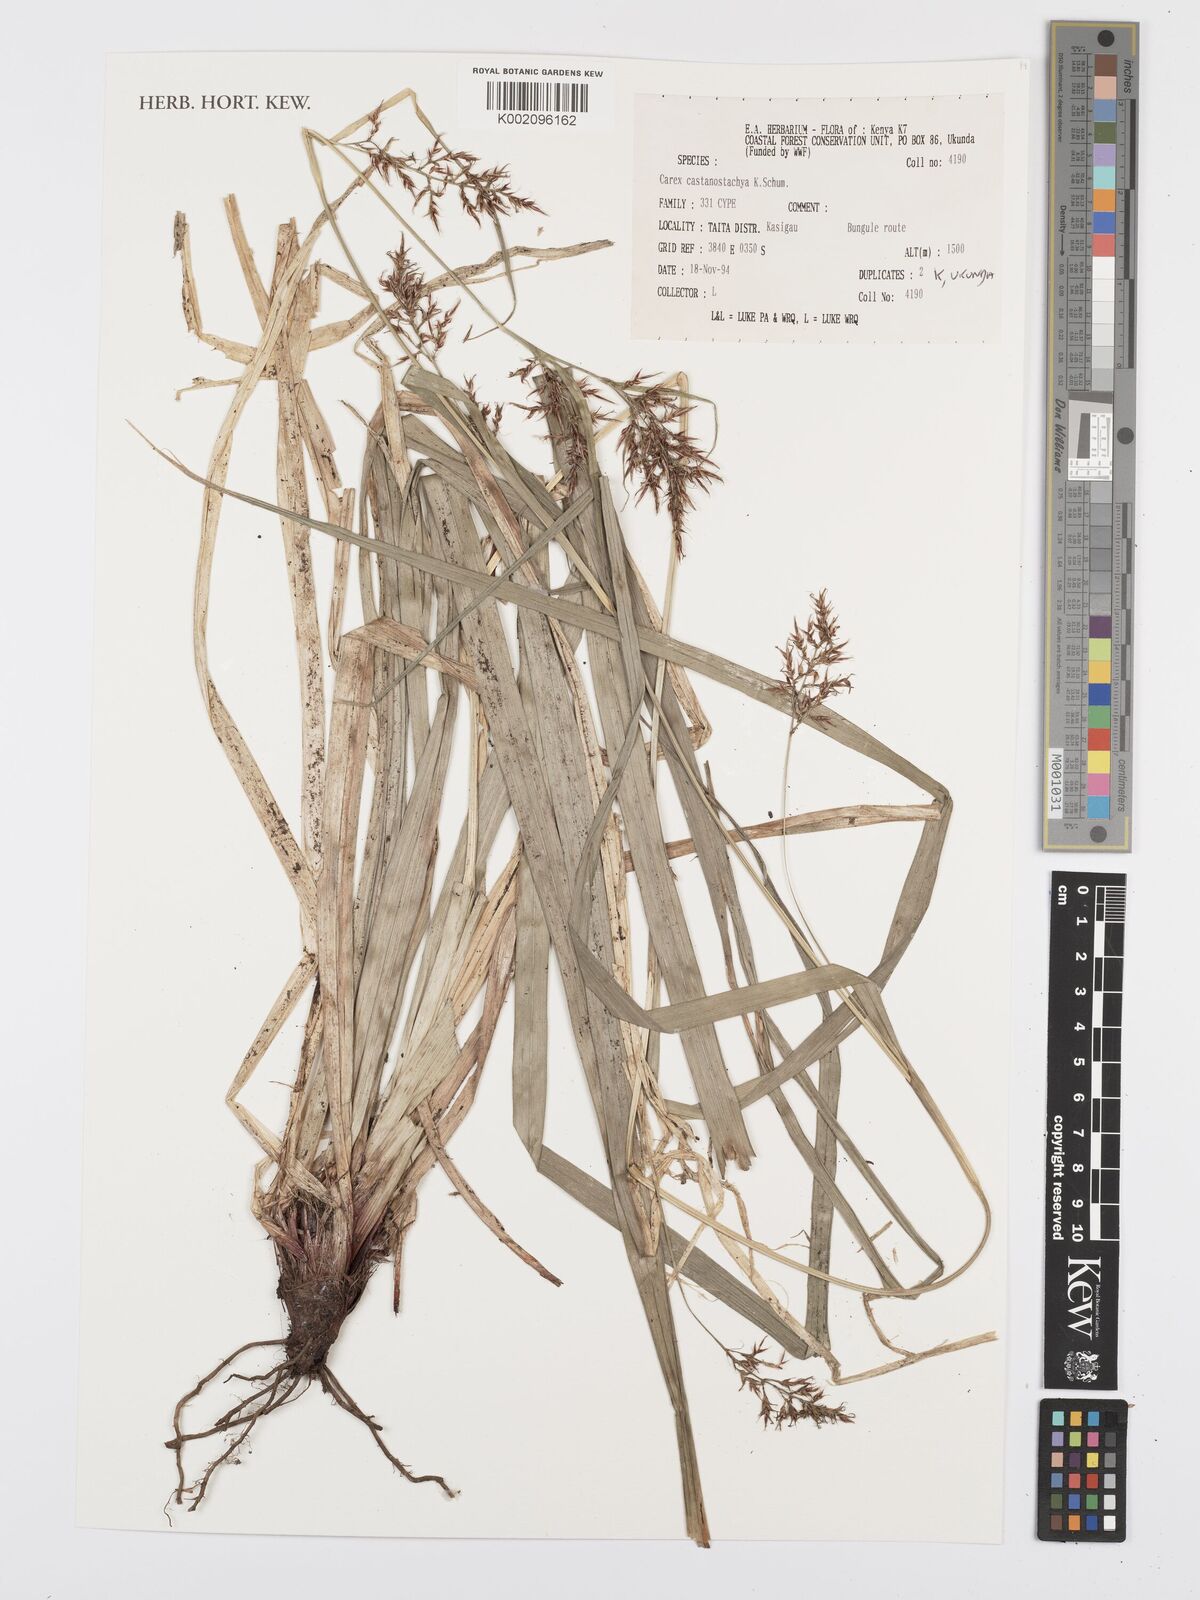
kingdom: Plantae
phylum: Tracheophyta
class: Liliopsida
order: Poales
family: Cyperaceae
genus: Carex
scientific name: Carex castanostachya
